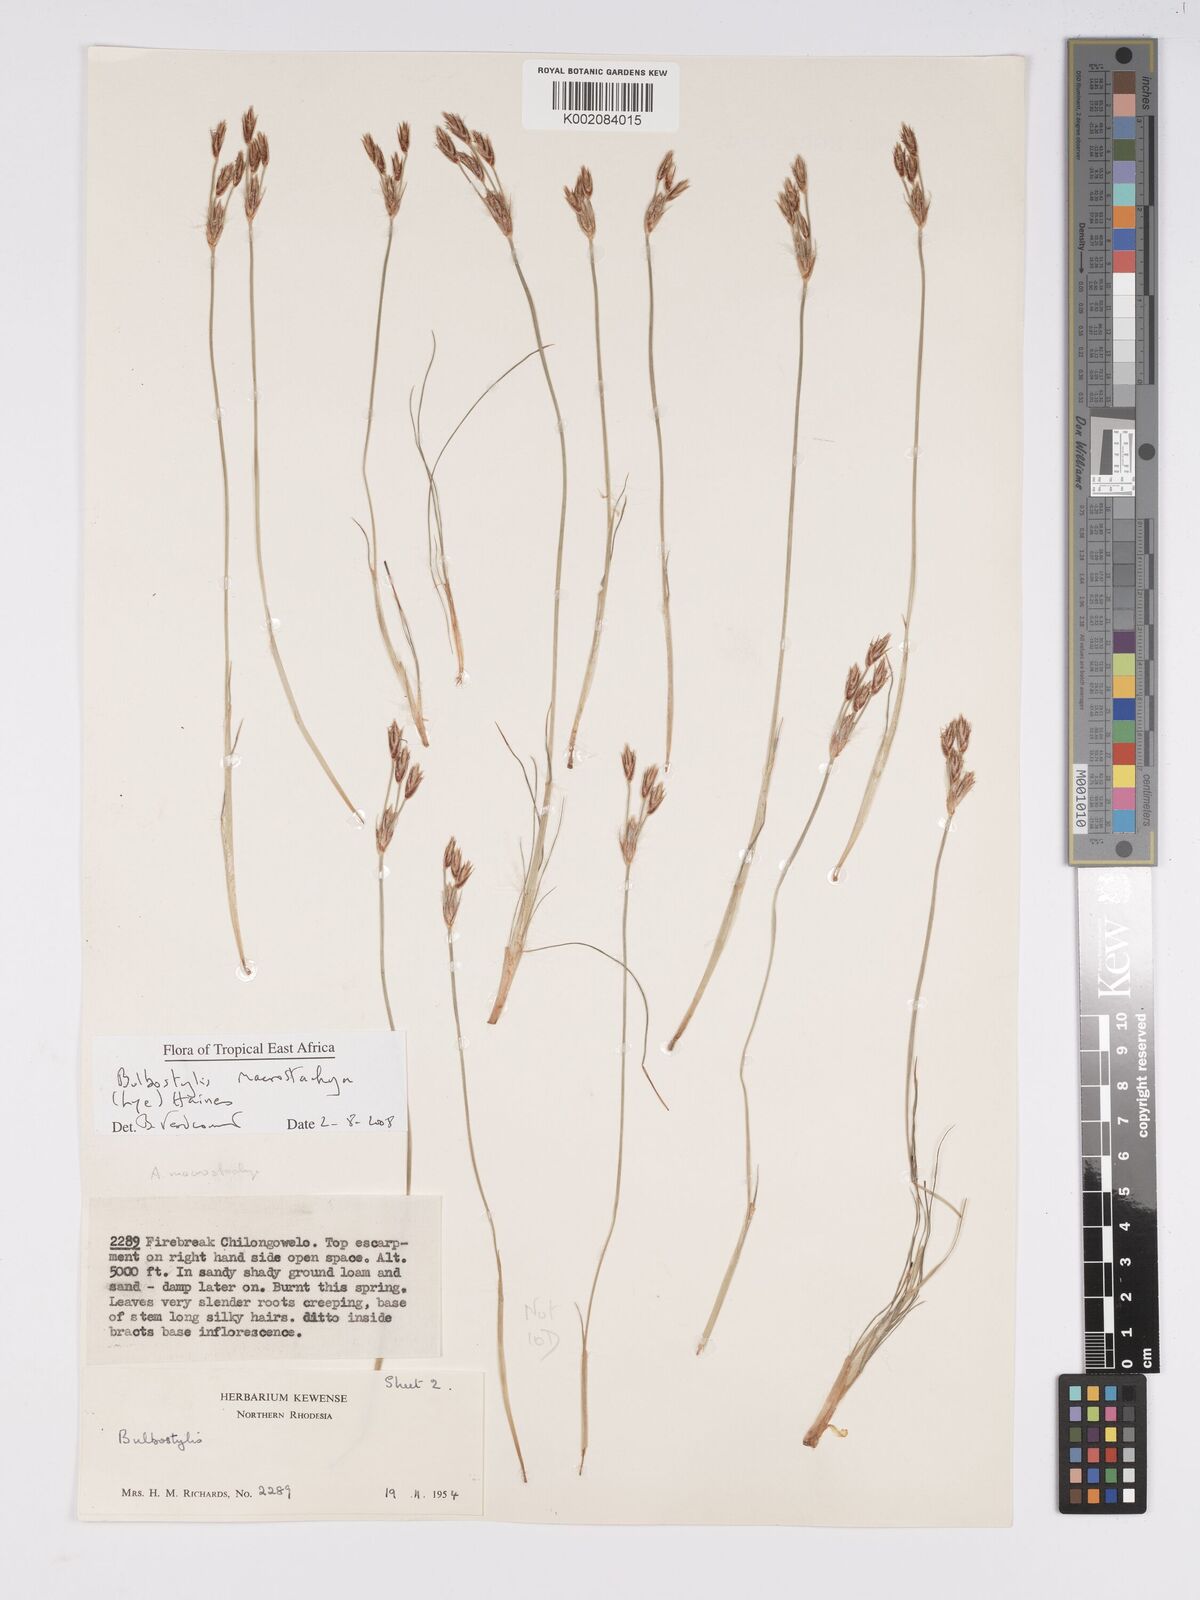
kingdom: Plantae
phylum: Tracheophyta
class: Liliopsida
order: Poales
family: Cyperaceae
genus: Bulbostylis
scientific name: Bulbostylis macrostachya
